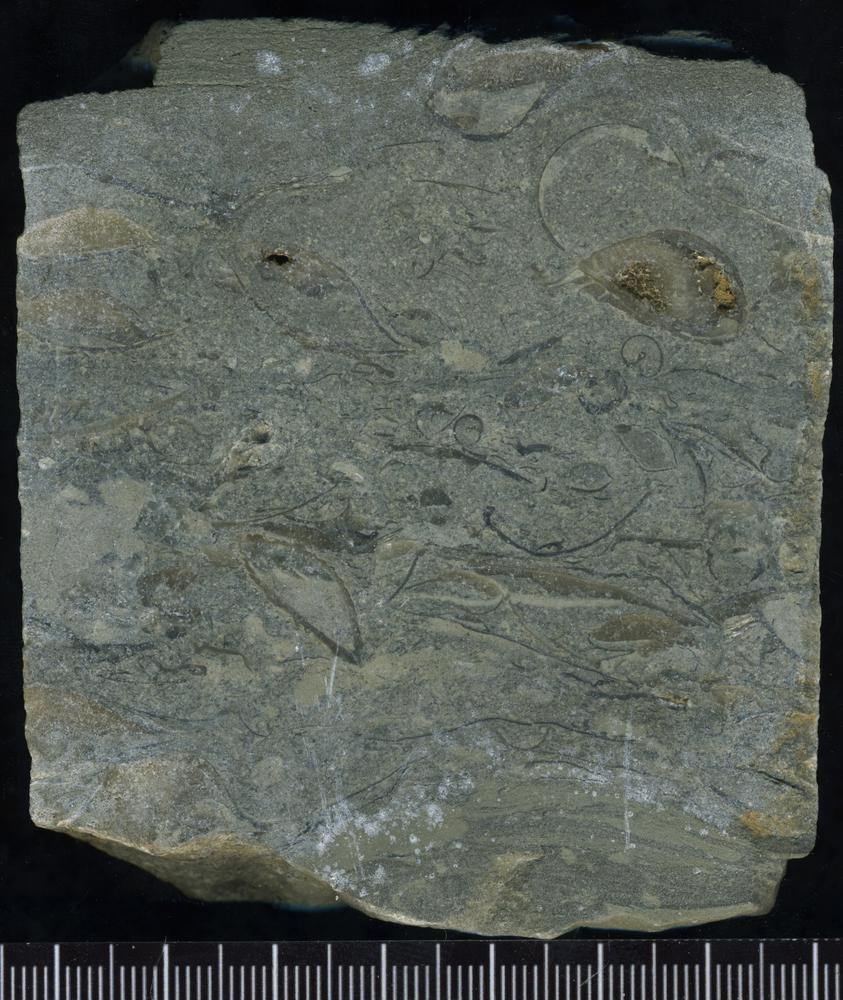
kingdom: Plantae
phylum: Tracheophyta
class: Pinopsida
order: Pinales
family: Cupressaceae
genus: Platycladus
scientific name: Platycladus
